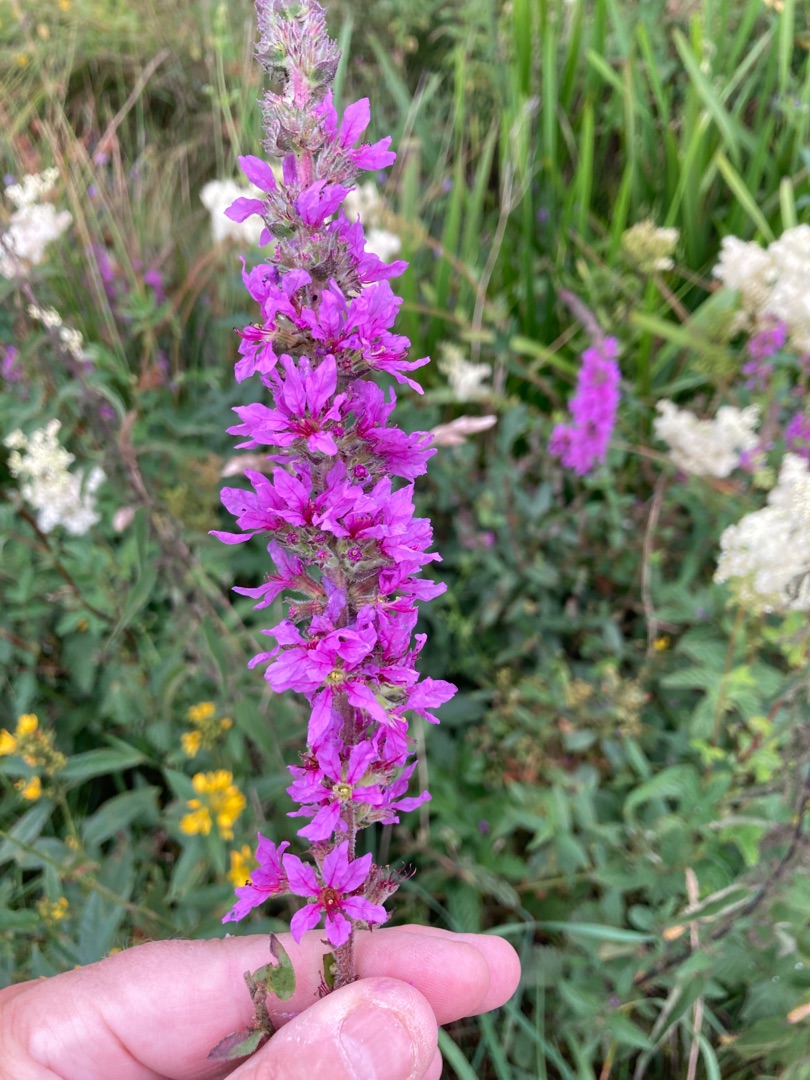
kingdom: Plantae
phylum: Tracheophyta
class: Magnoliopsida
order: Myrtales
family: Lythraceae
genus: Lythrum
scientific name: Lythrum salicaria
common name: Kattehale
